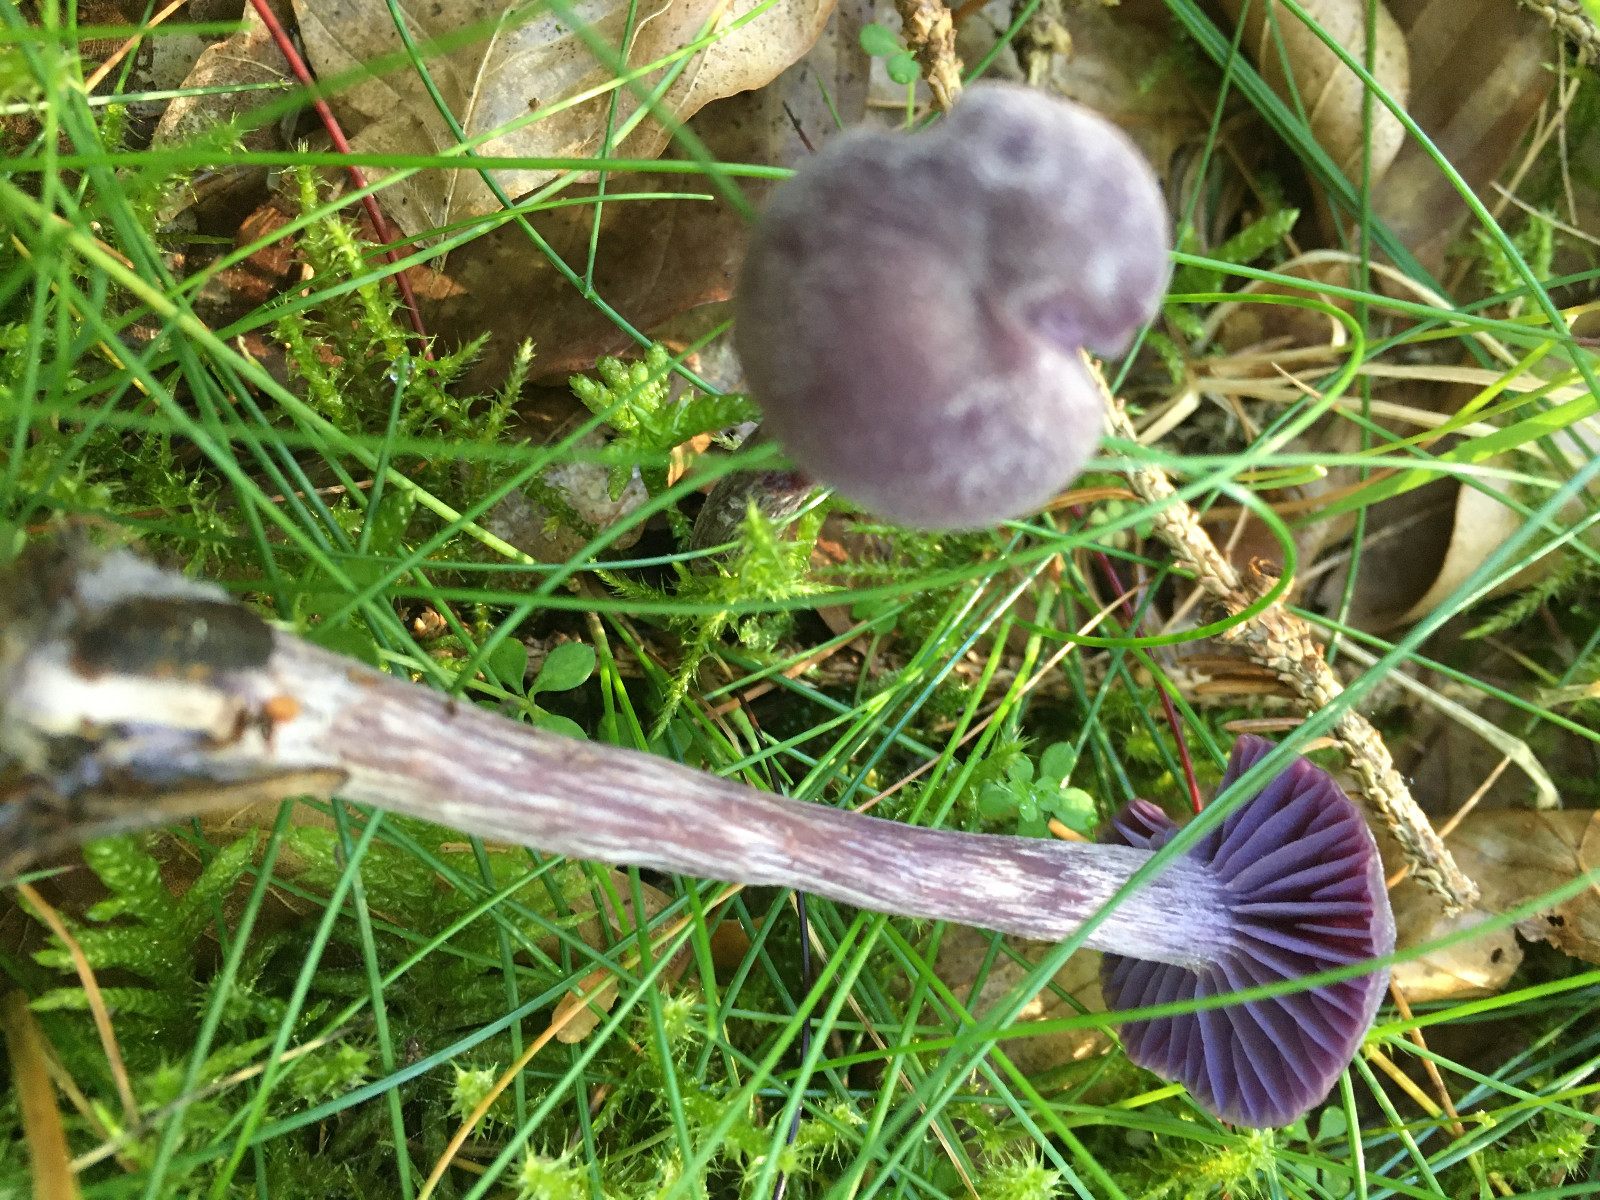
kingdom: Fungi
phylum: Basidiomycota
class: Agaricomycetes
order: Agaricales
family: Hydnangiaceae
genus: Laccaria
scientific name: Laccaria amethystina
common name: violet ametysthat
